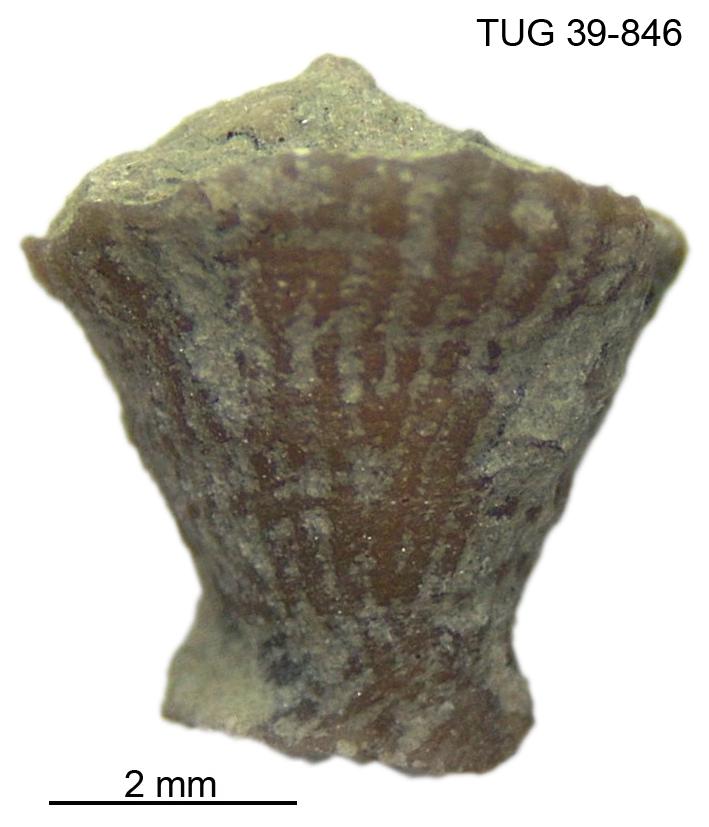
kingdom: Animalia
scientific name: Animalia
